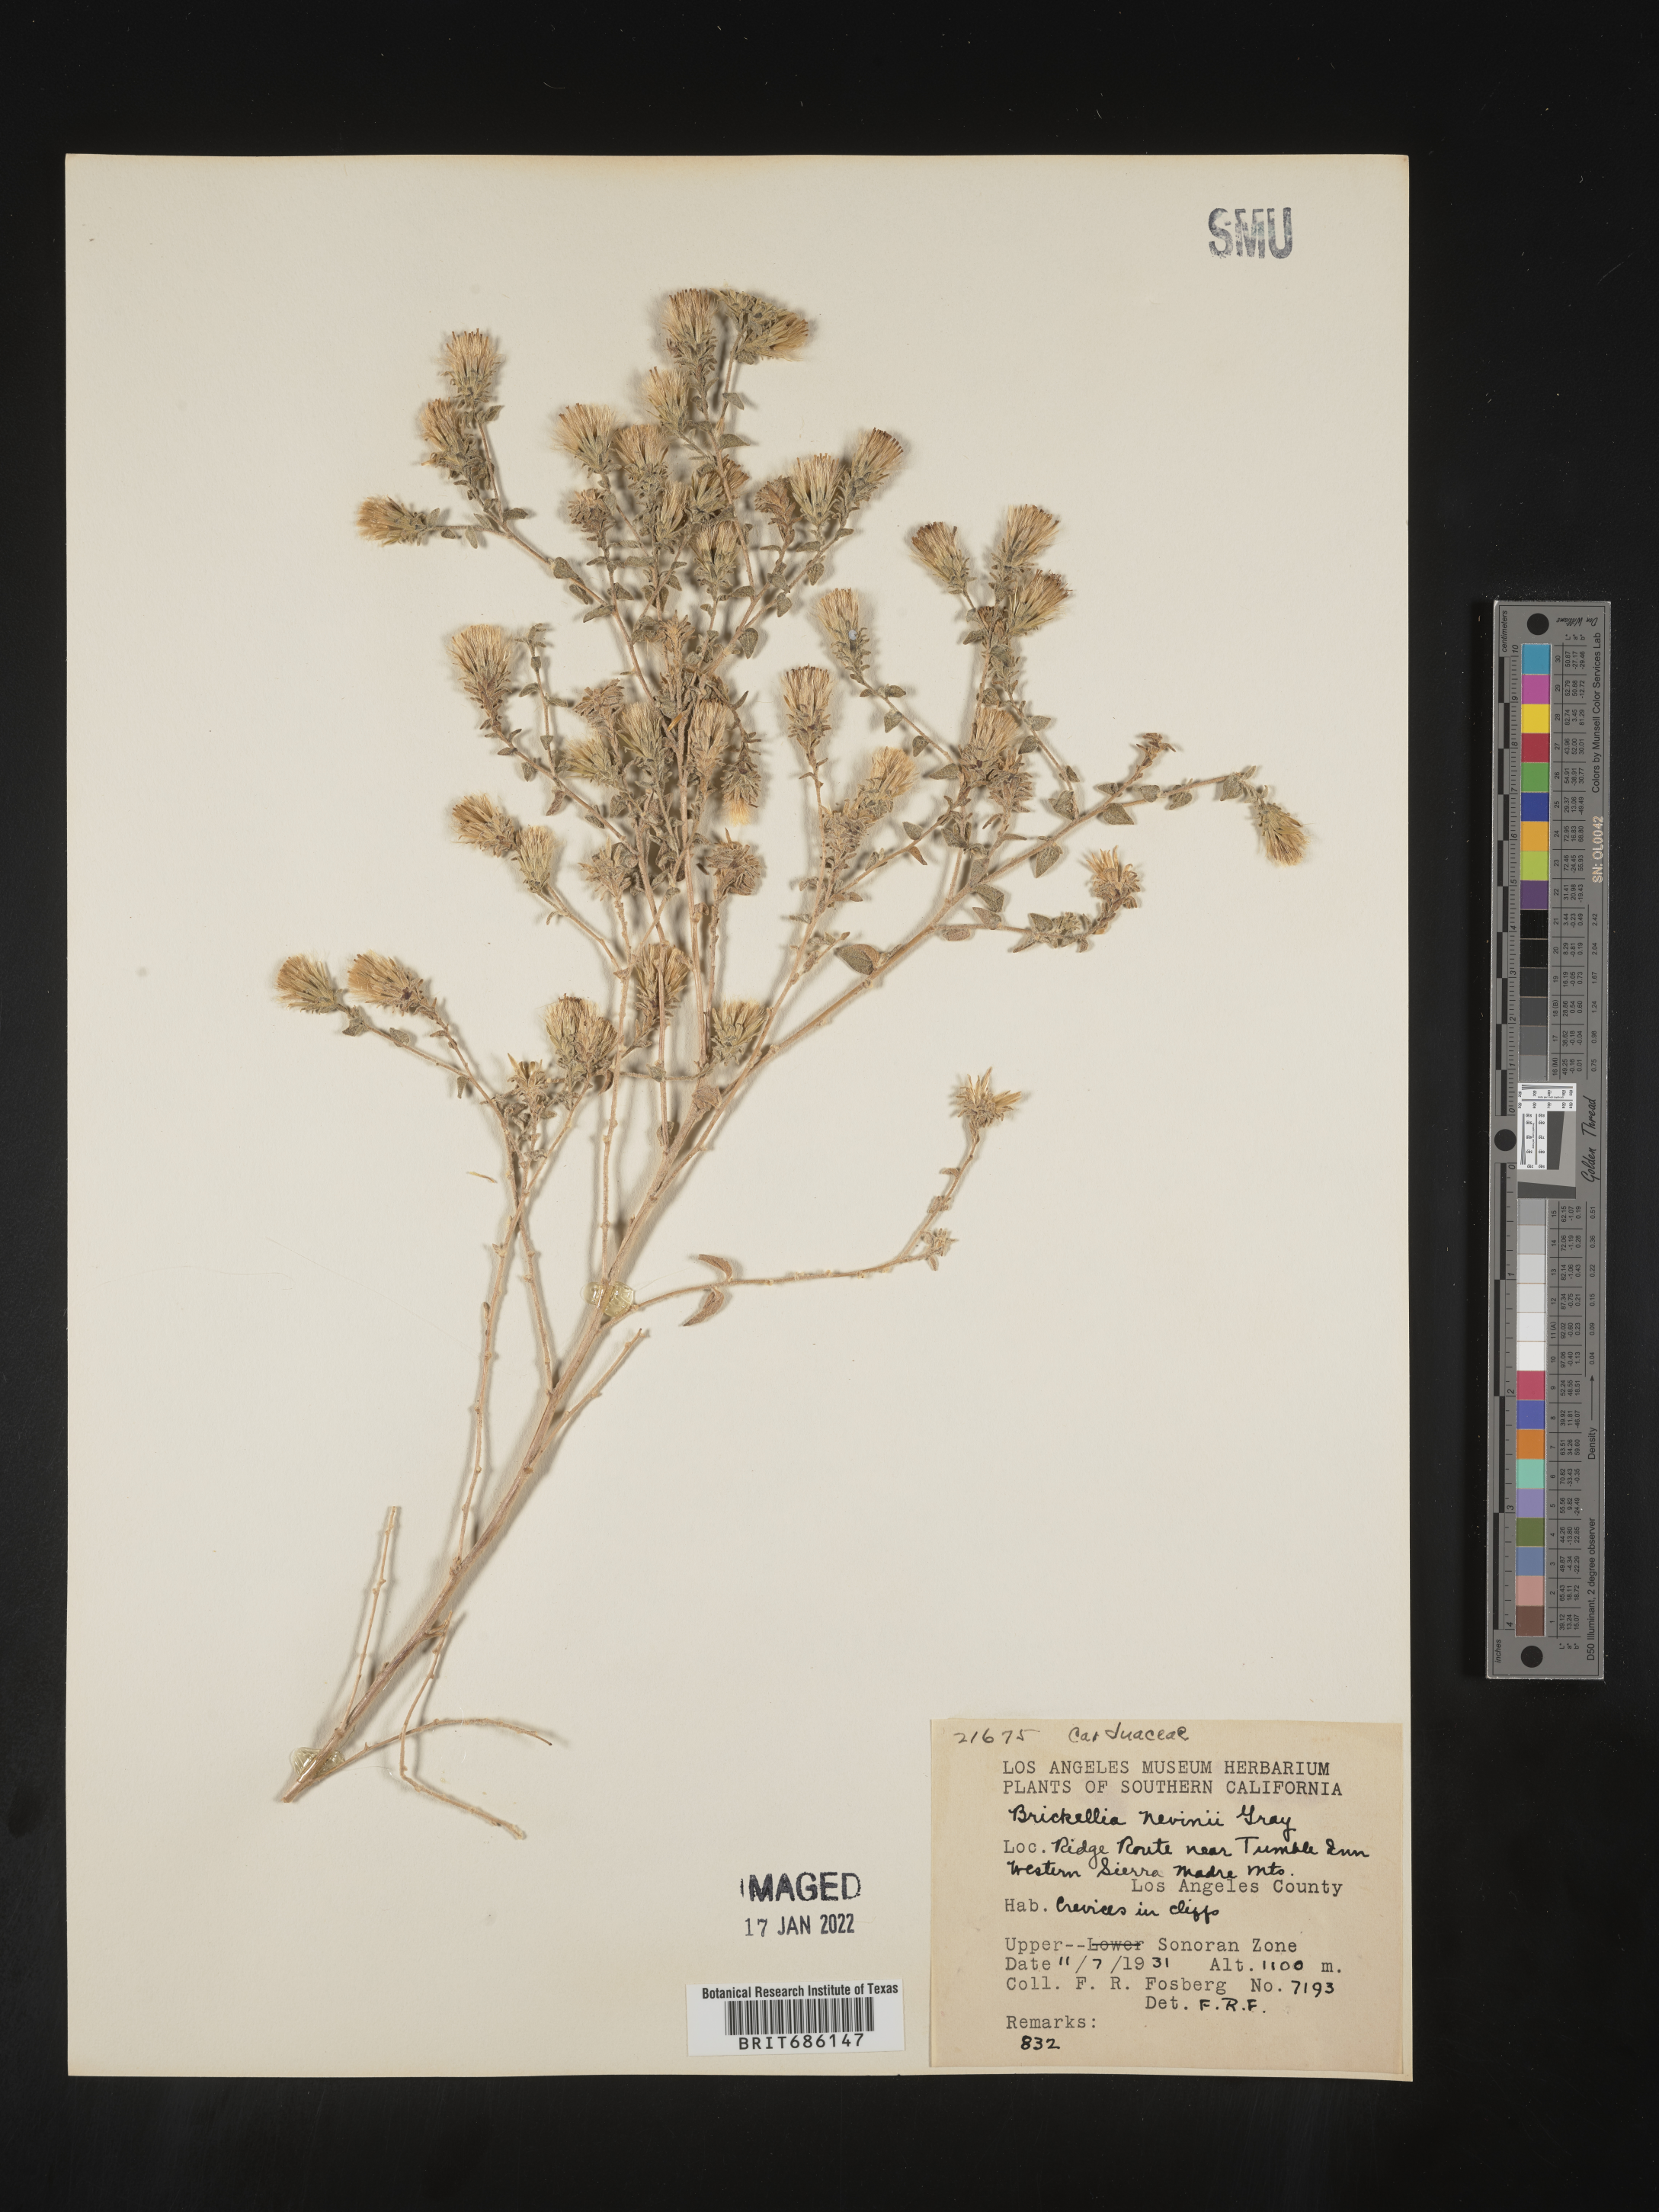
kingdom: Plantae
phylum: Tracheophyta
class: Magnoliopsida
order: Asterales
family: Asteraceae
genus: Brickellia
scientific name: Brickellia nevinii
